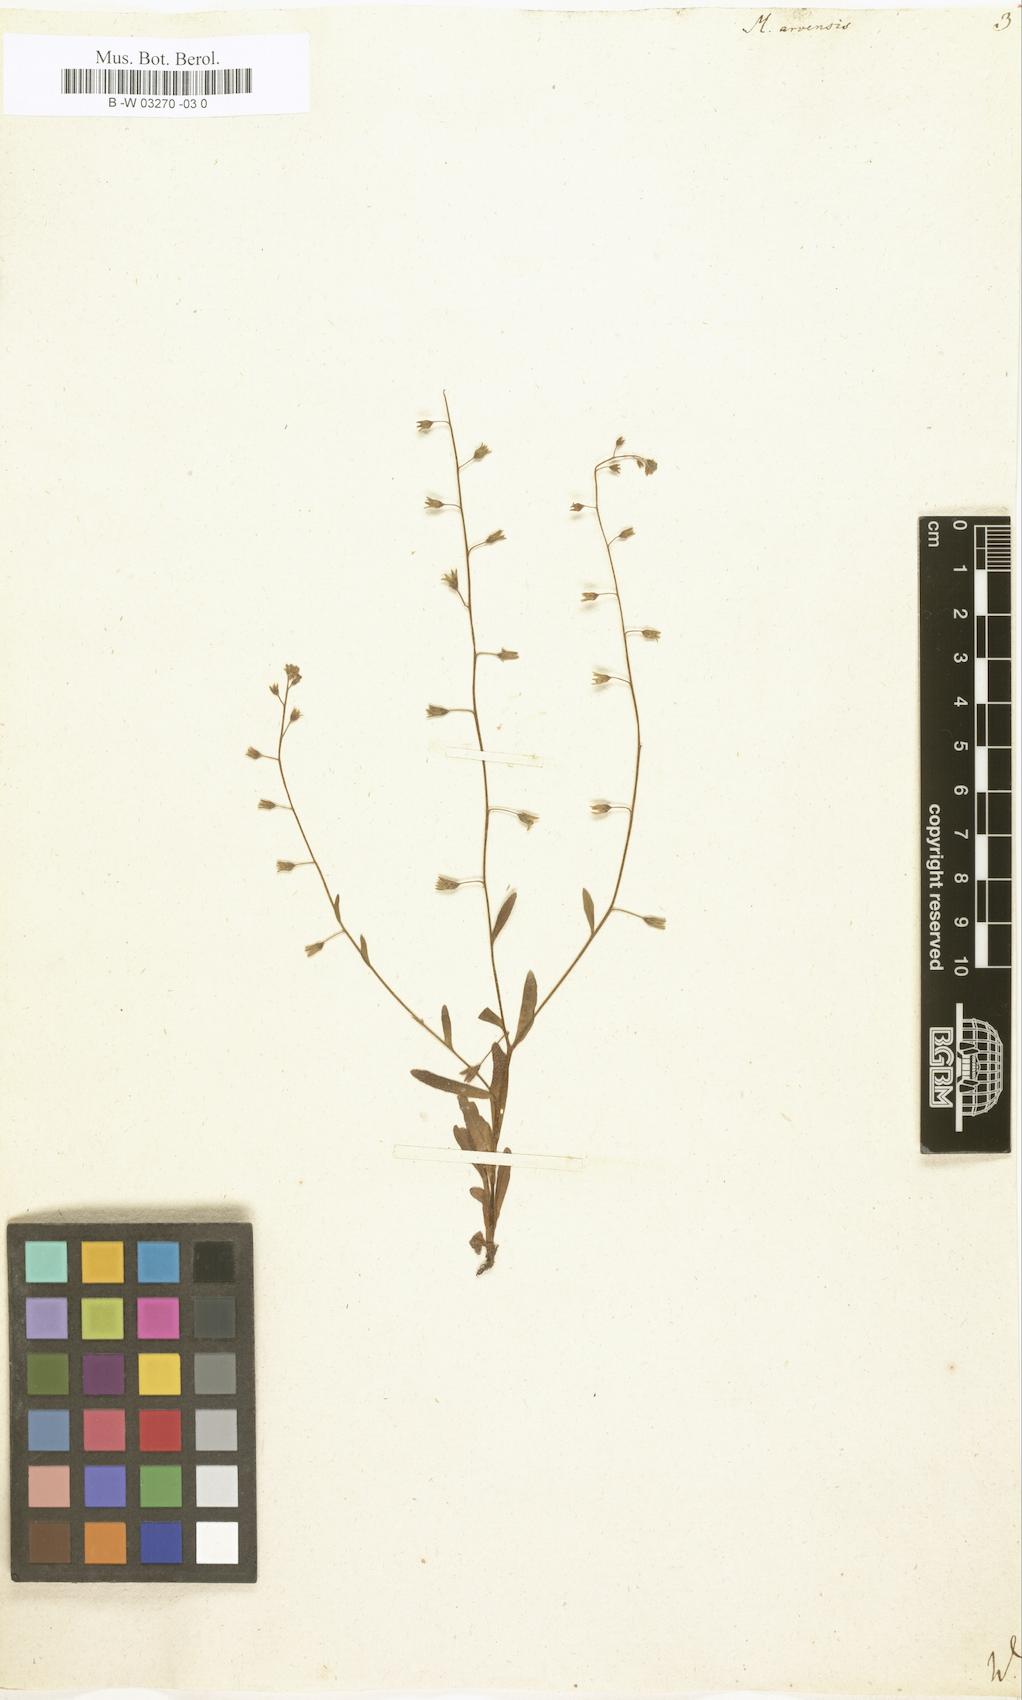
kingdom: Plantae
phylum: Tracheophyta
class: Magnoliopsida
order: Boraginales
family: Boraginaceae
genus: Myosotis
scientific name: Myosotis arvensis
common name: Field forget-me-not
